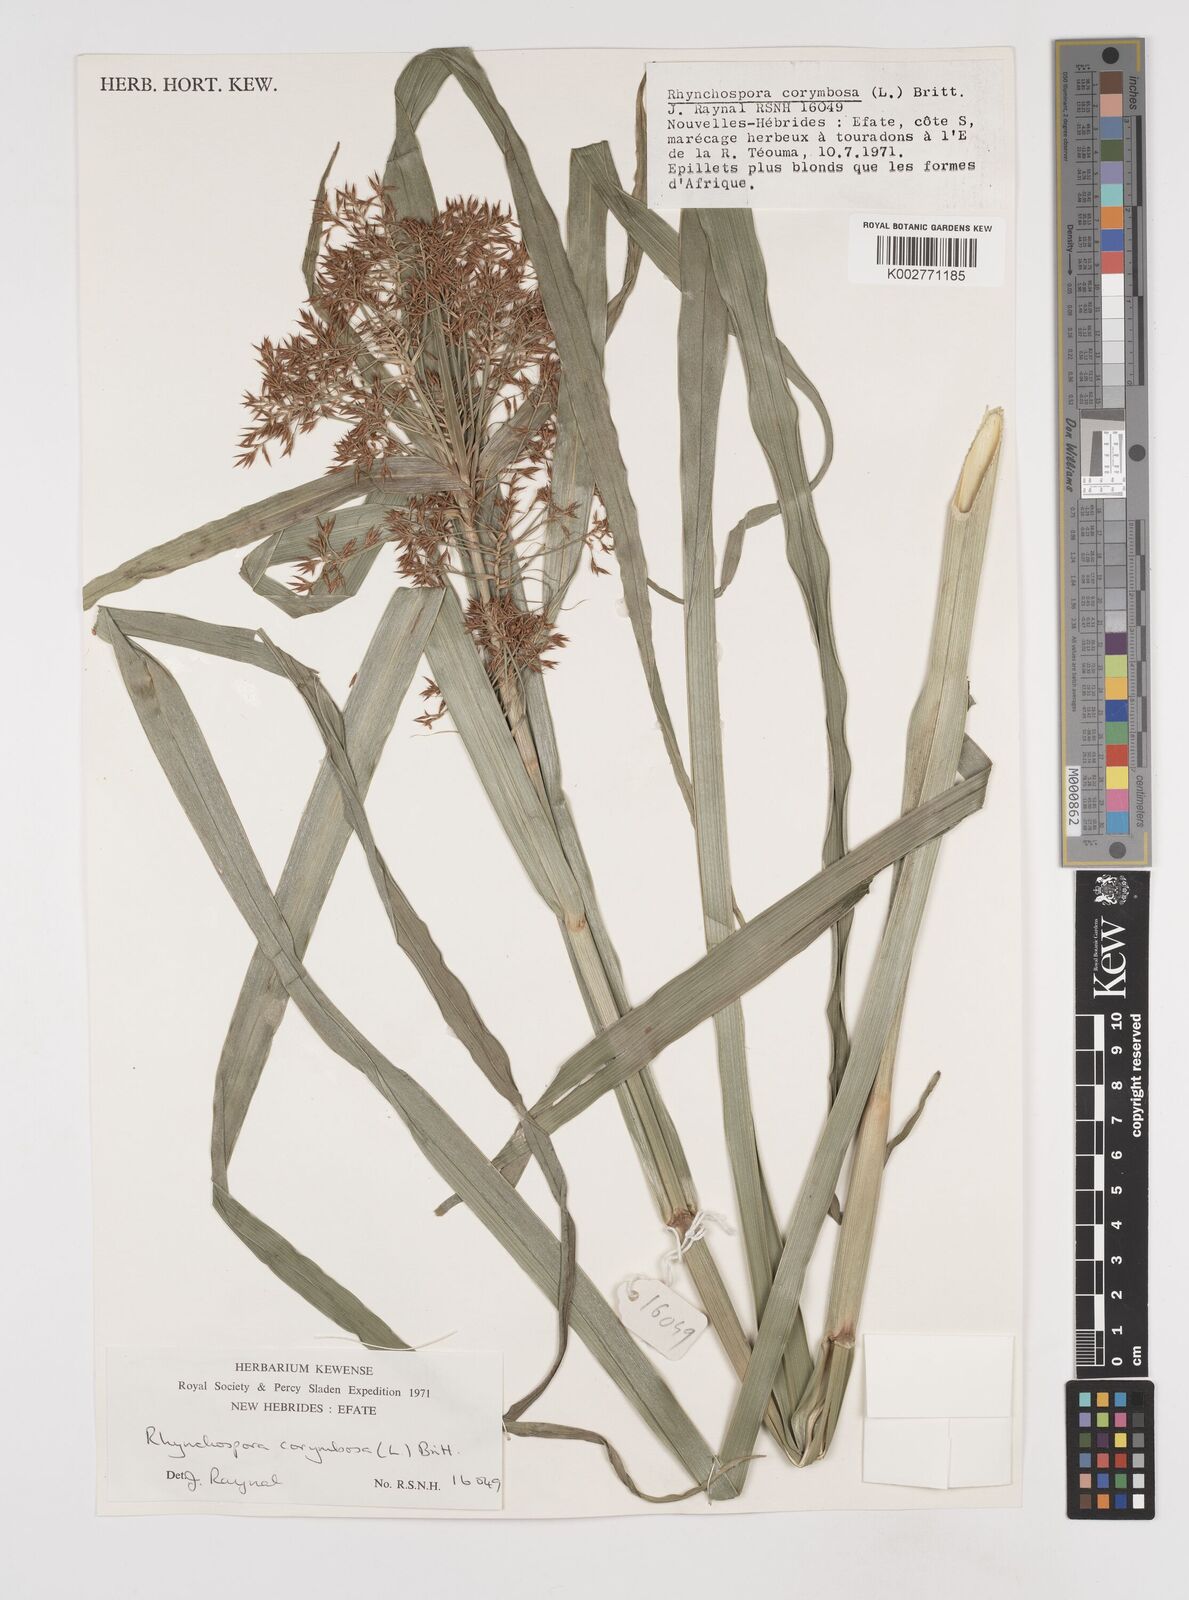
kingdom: Plantae
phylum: Tracheophyta
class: Liliopsida
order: Poales
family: Cyperaceae
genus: Rhynchospora
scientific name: Rhynchospora corymbosa
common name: Golden beak sedge
